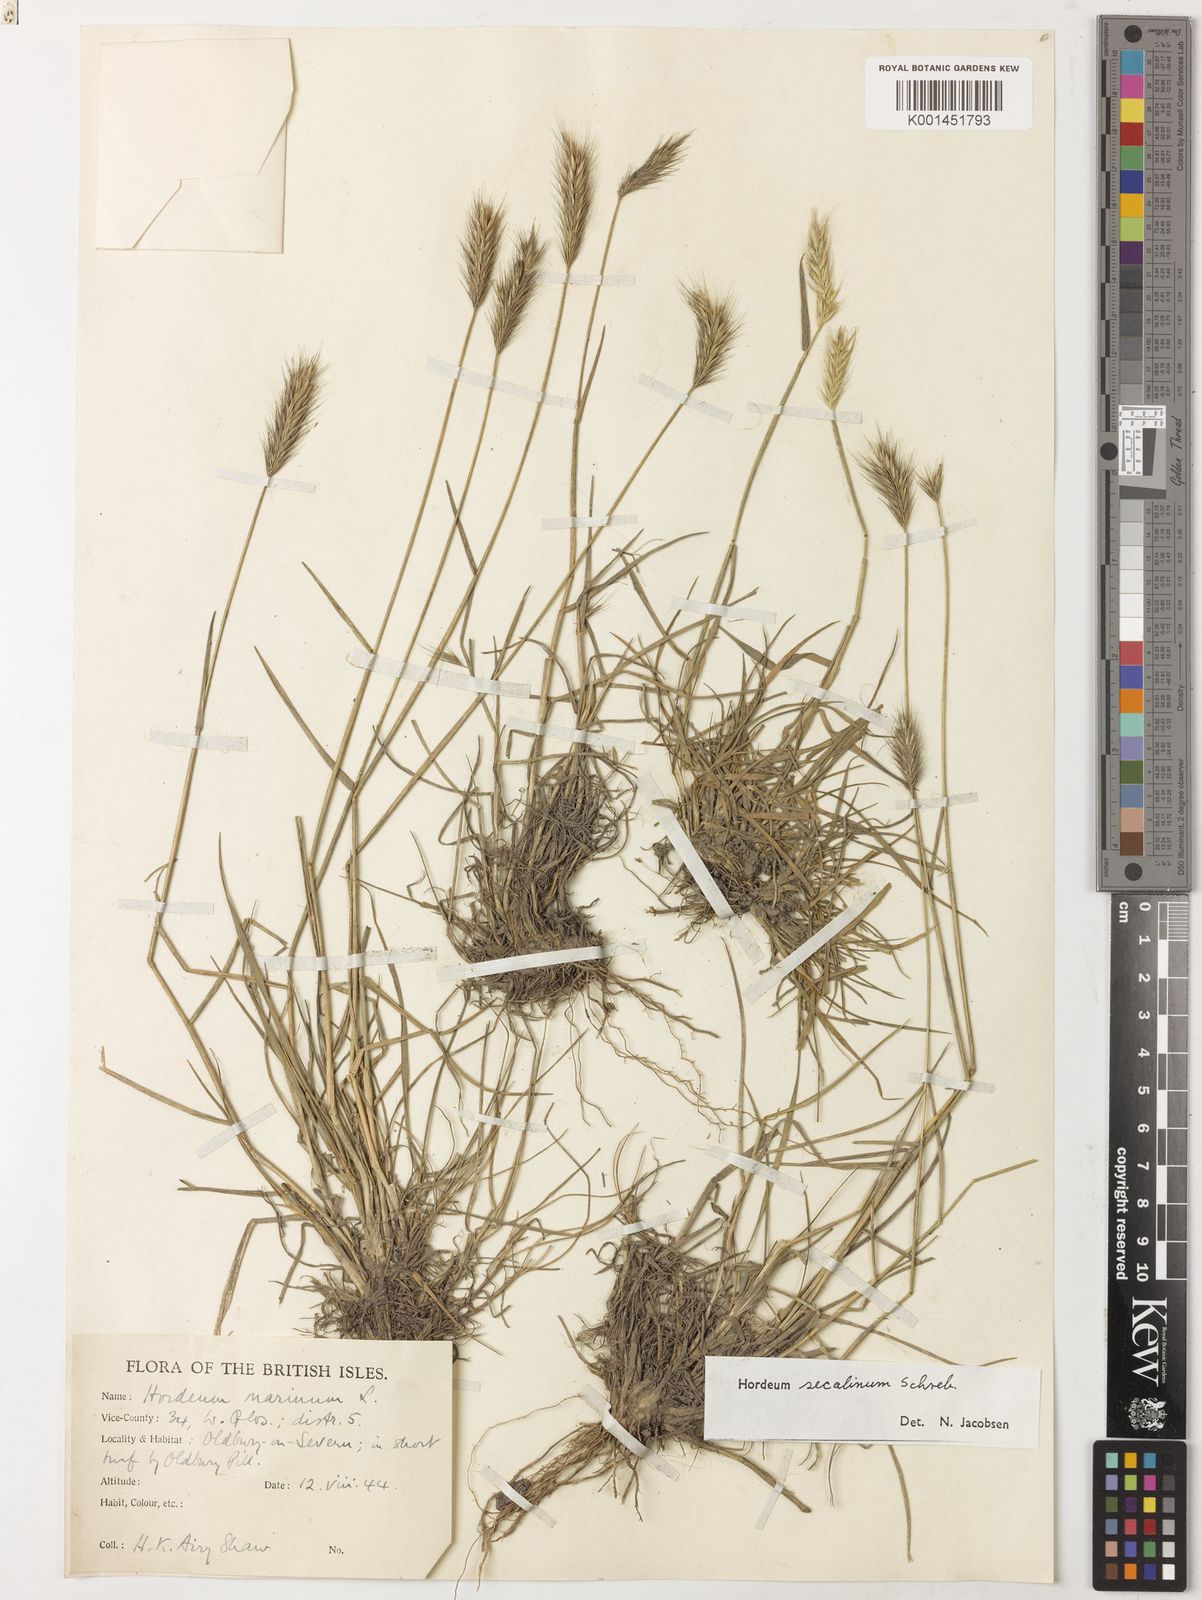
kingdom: Plantae
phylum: Tracheophyta
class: Liliopsida
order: Poales
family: Poaceae
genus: Hordeum
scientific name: Hordeum secalinum
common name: Meadow barley
